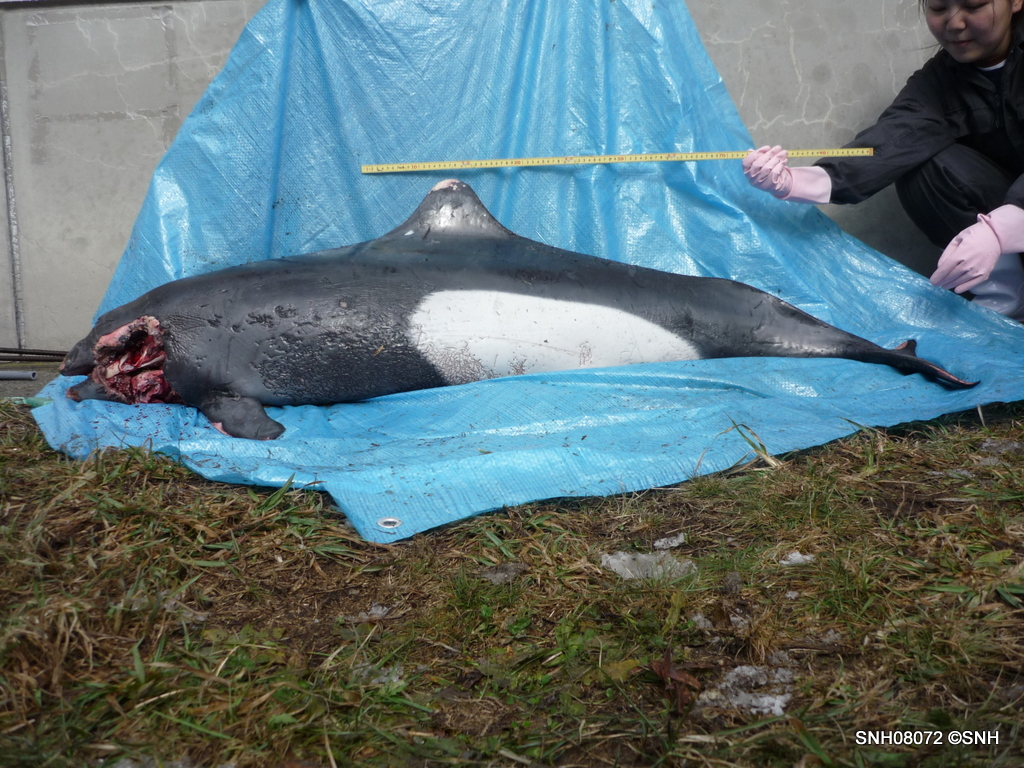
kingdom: Animalia
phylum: Chordata
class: Mammalia
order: Cetacea
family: Phocoenidae
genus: Phocoenoides
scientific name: Phocoenoides dalli
